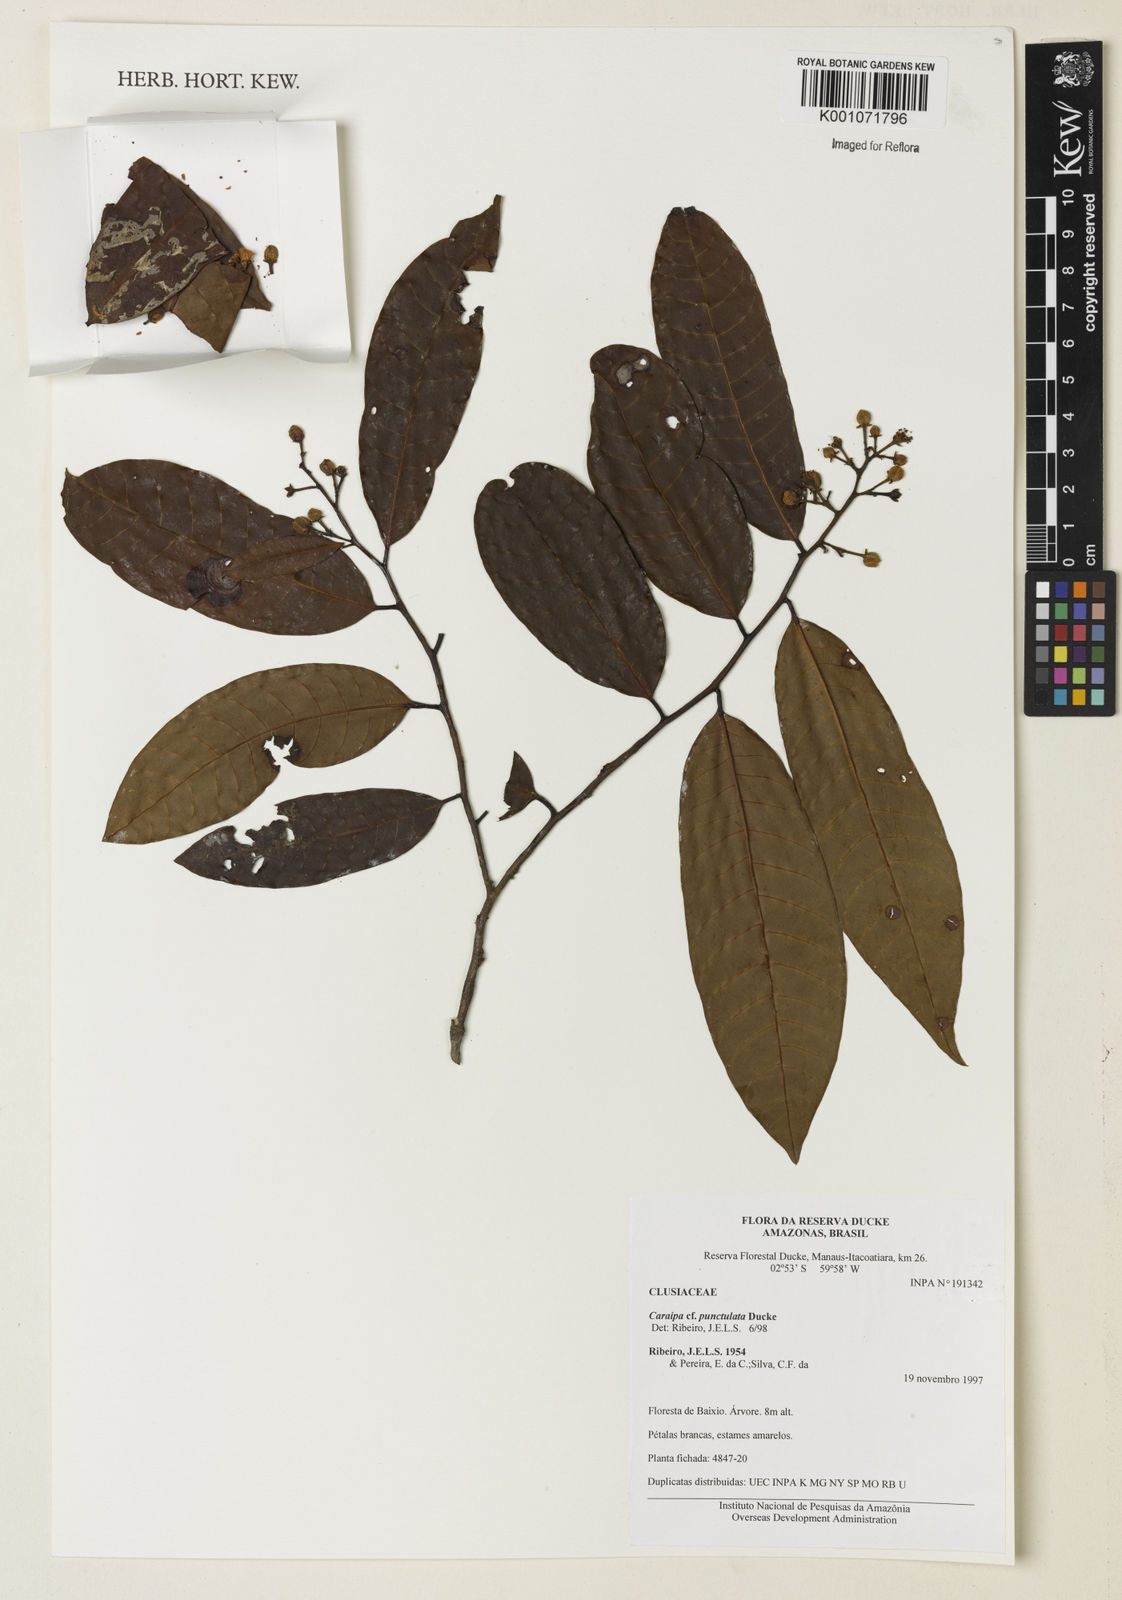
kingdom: Plantae
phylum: Tracheophyta
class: Magnoliopsida
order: Malpighiales
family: Calophyllaceae
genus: Caraipa
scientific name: Caraipa punctulata
